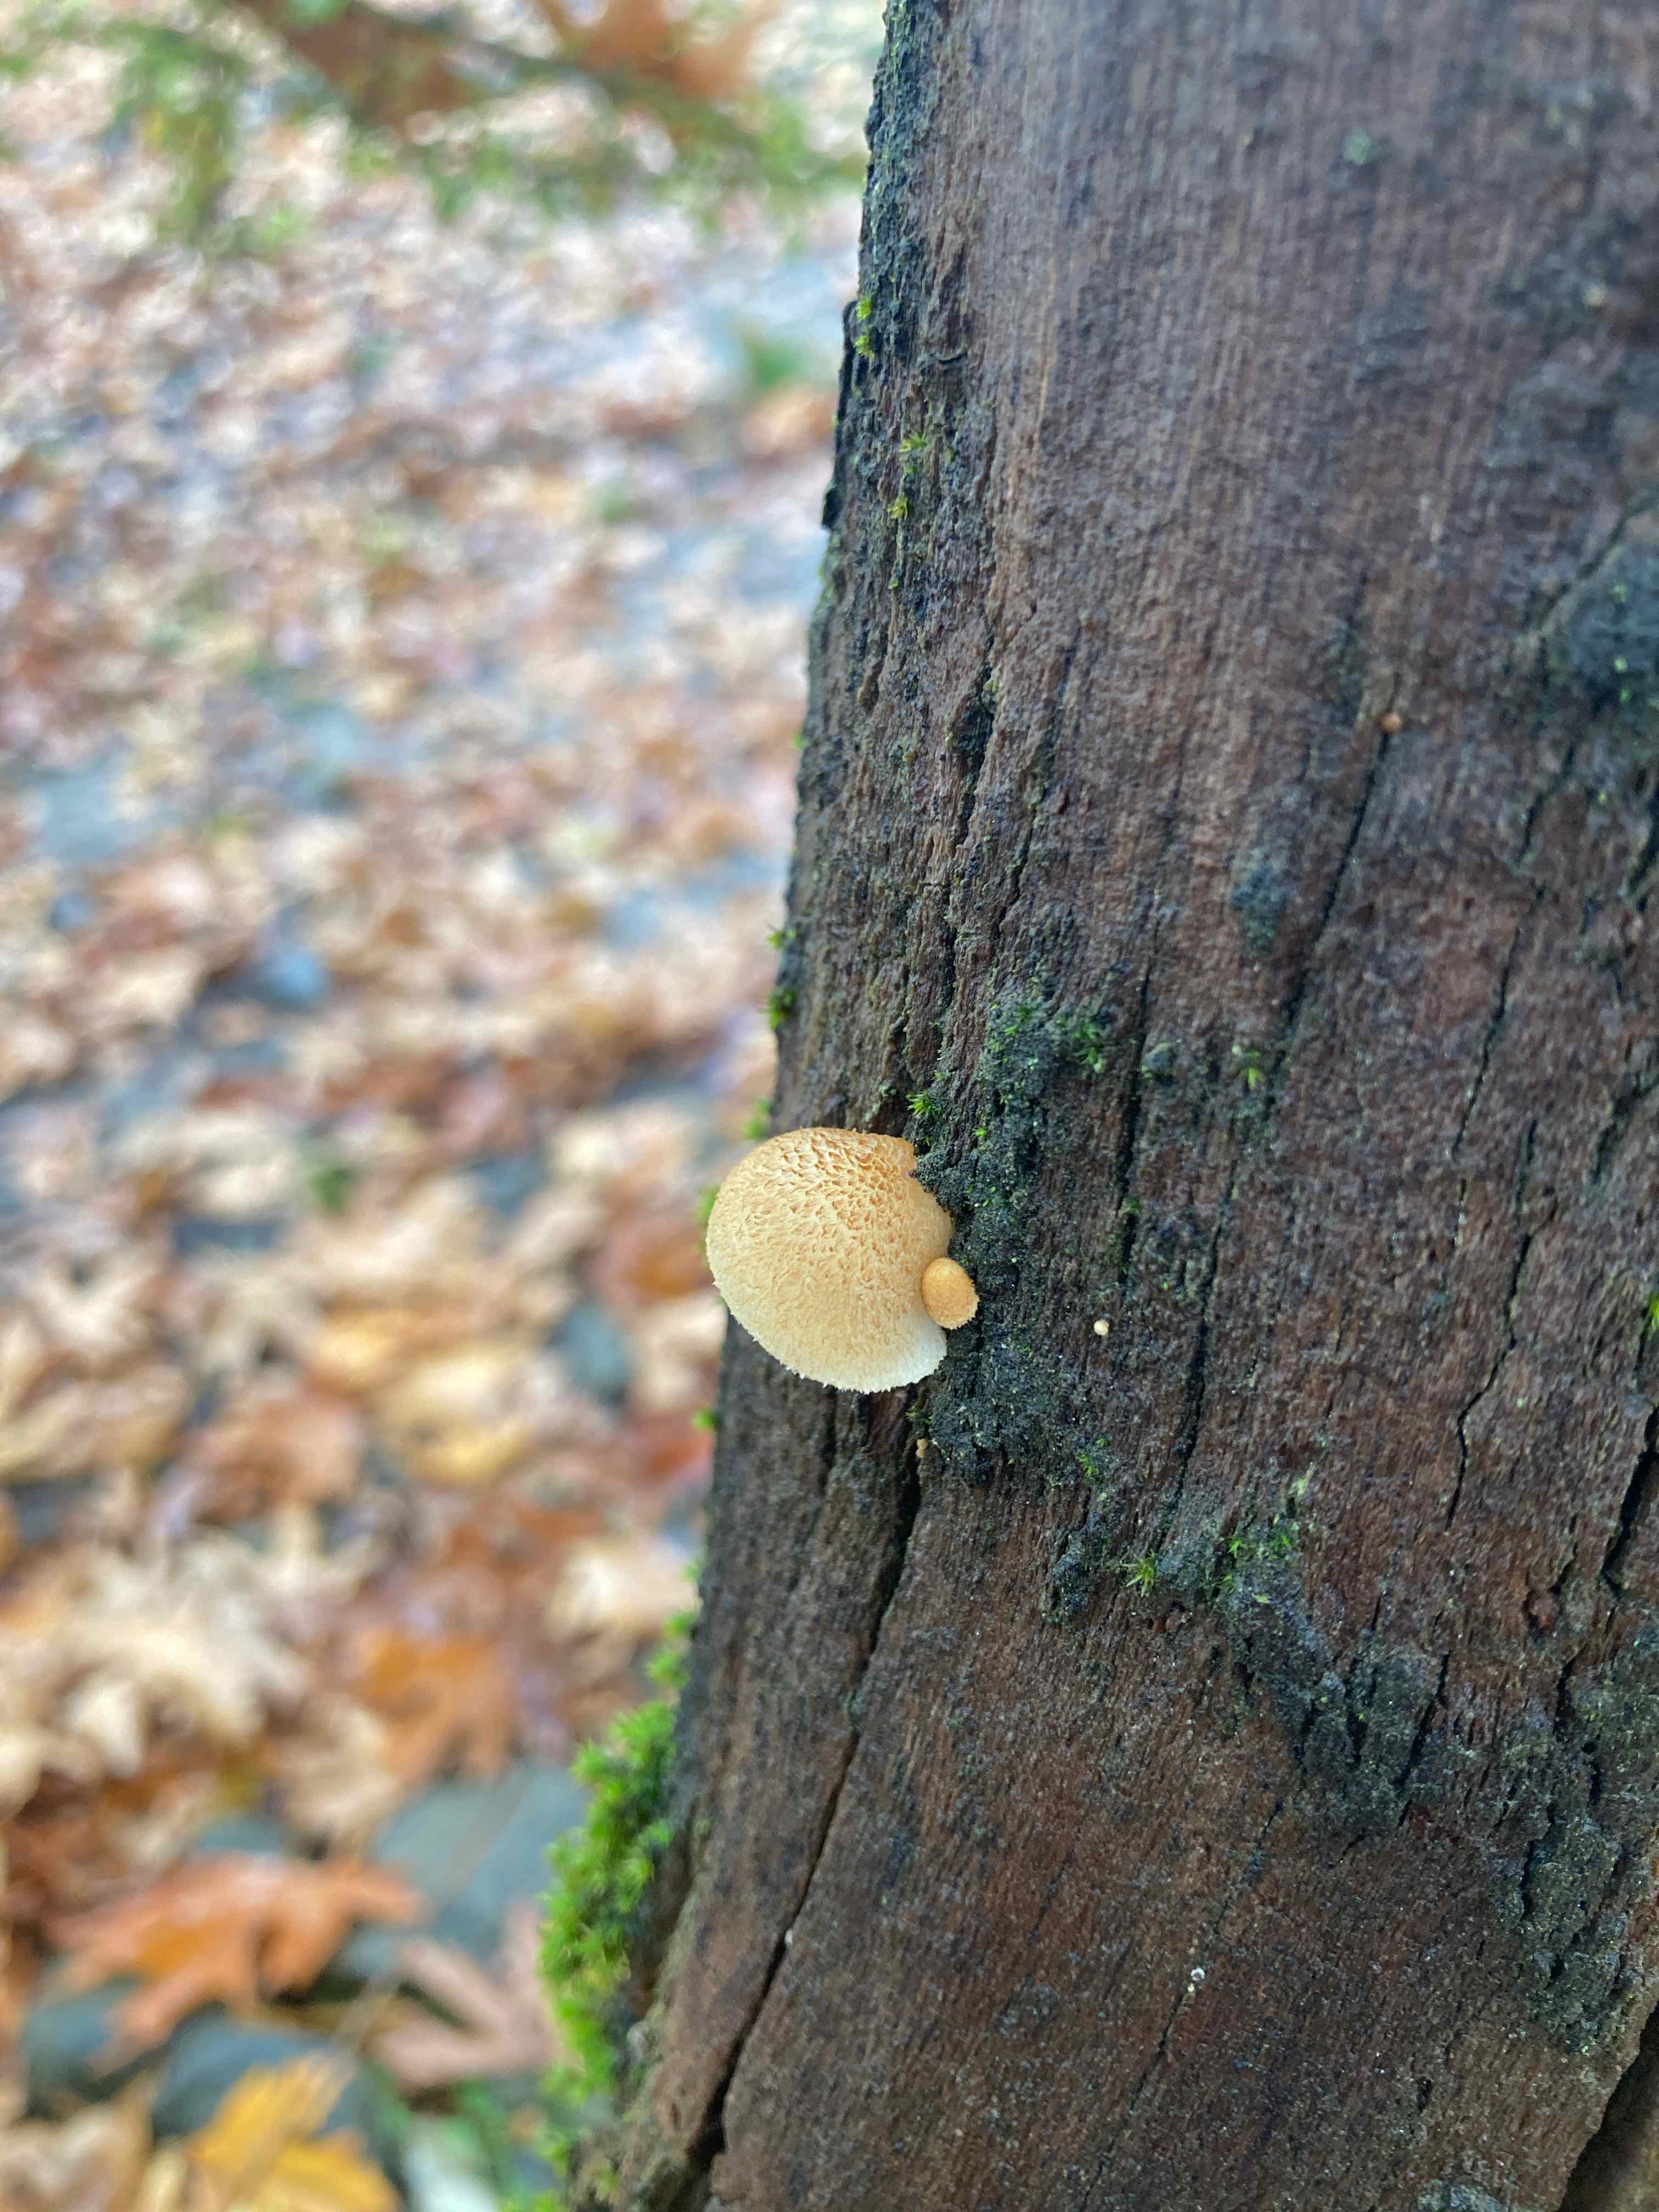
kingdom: Fungi
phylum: Basidiomycota
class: Agaricomycetes
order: Agaricales
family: Crepidotaceae
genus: Crepidotus
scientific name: Crepidotus calolepis
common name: småskællet muslingesvamp
